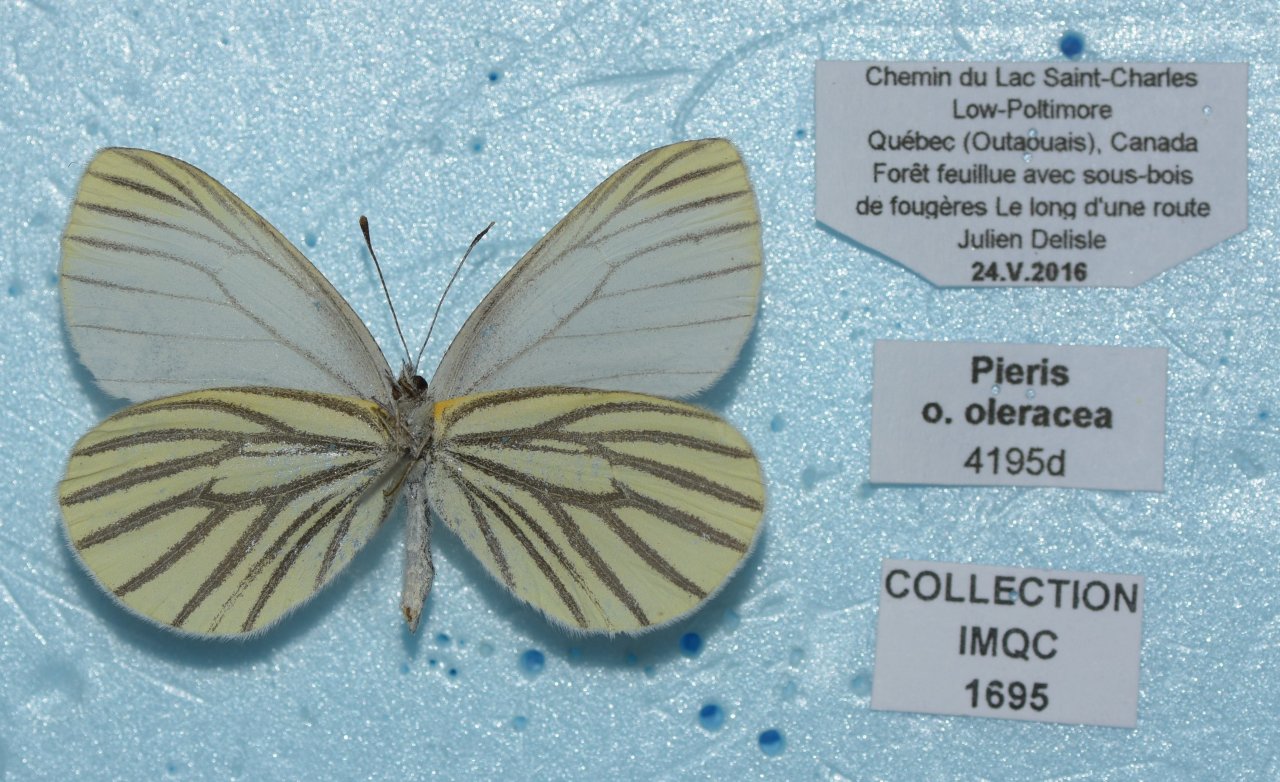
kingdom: Animalia
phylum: Arthropoda
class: Insecta
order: Lepidoptera
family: Pieridae
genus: Pieris
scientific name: Pieris oleracea
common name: Mustard White
